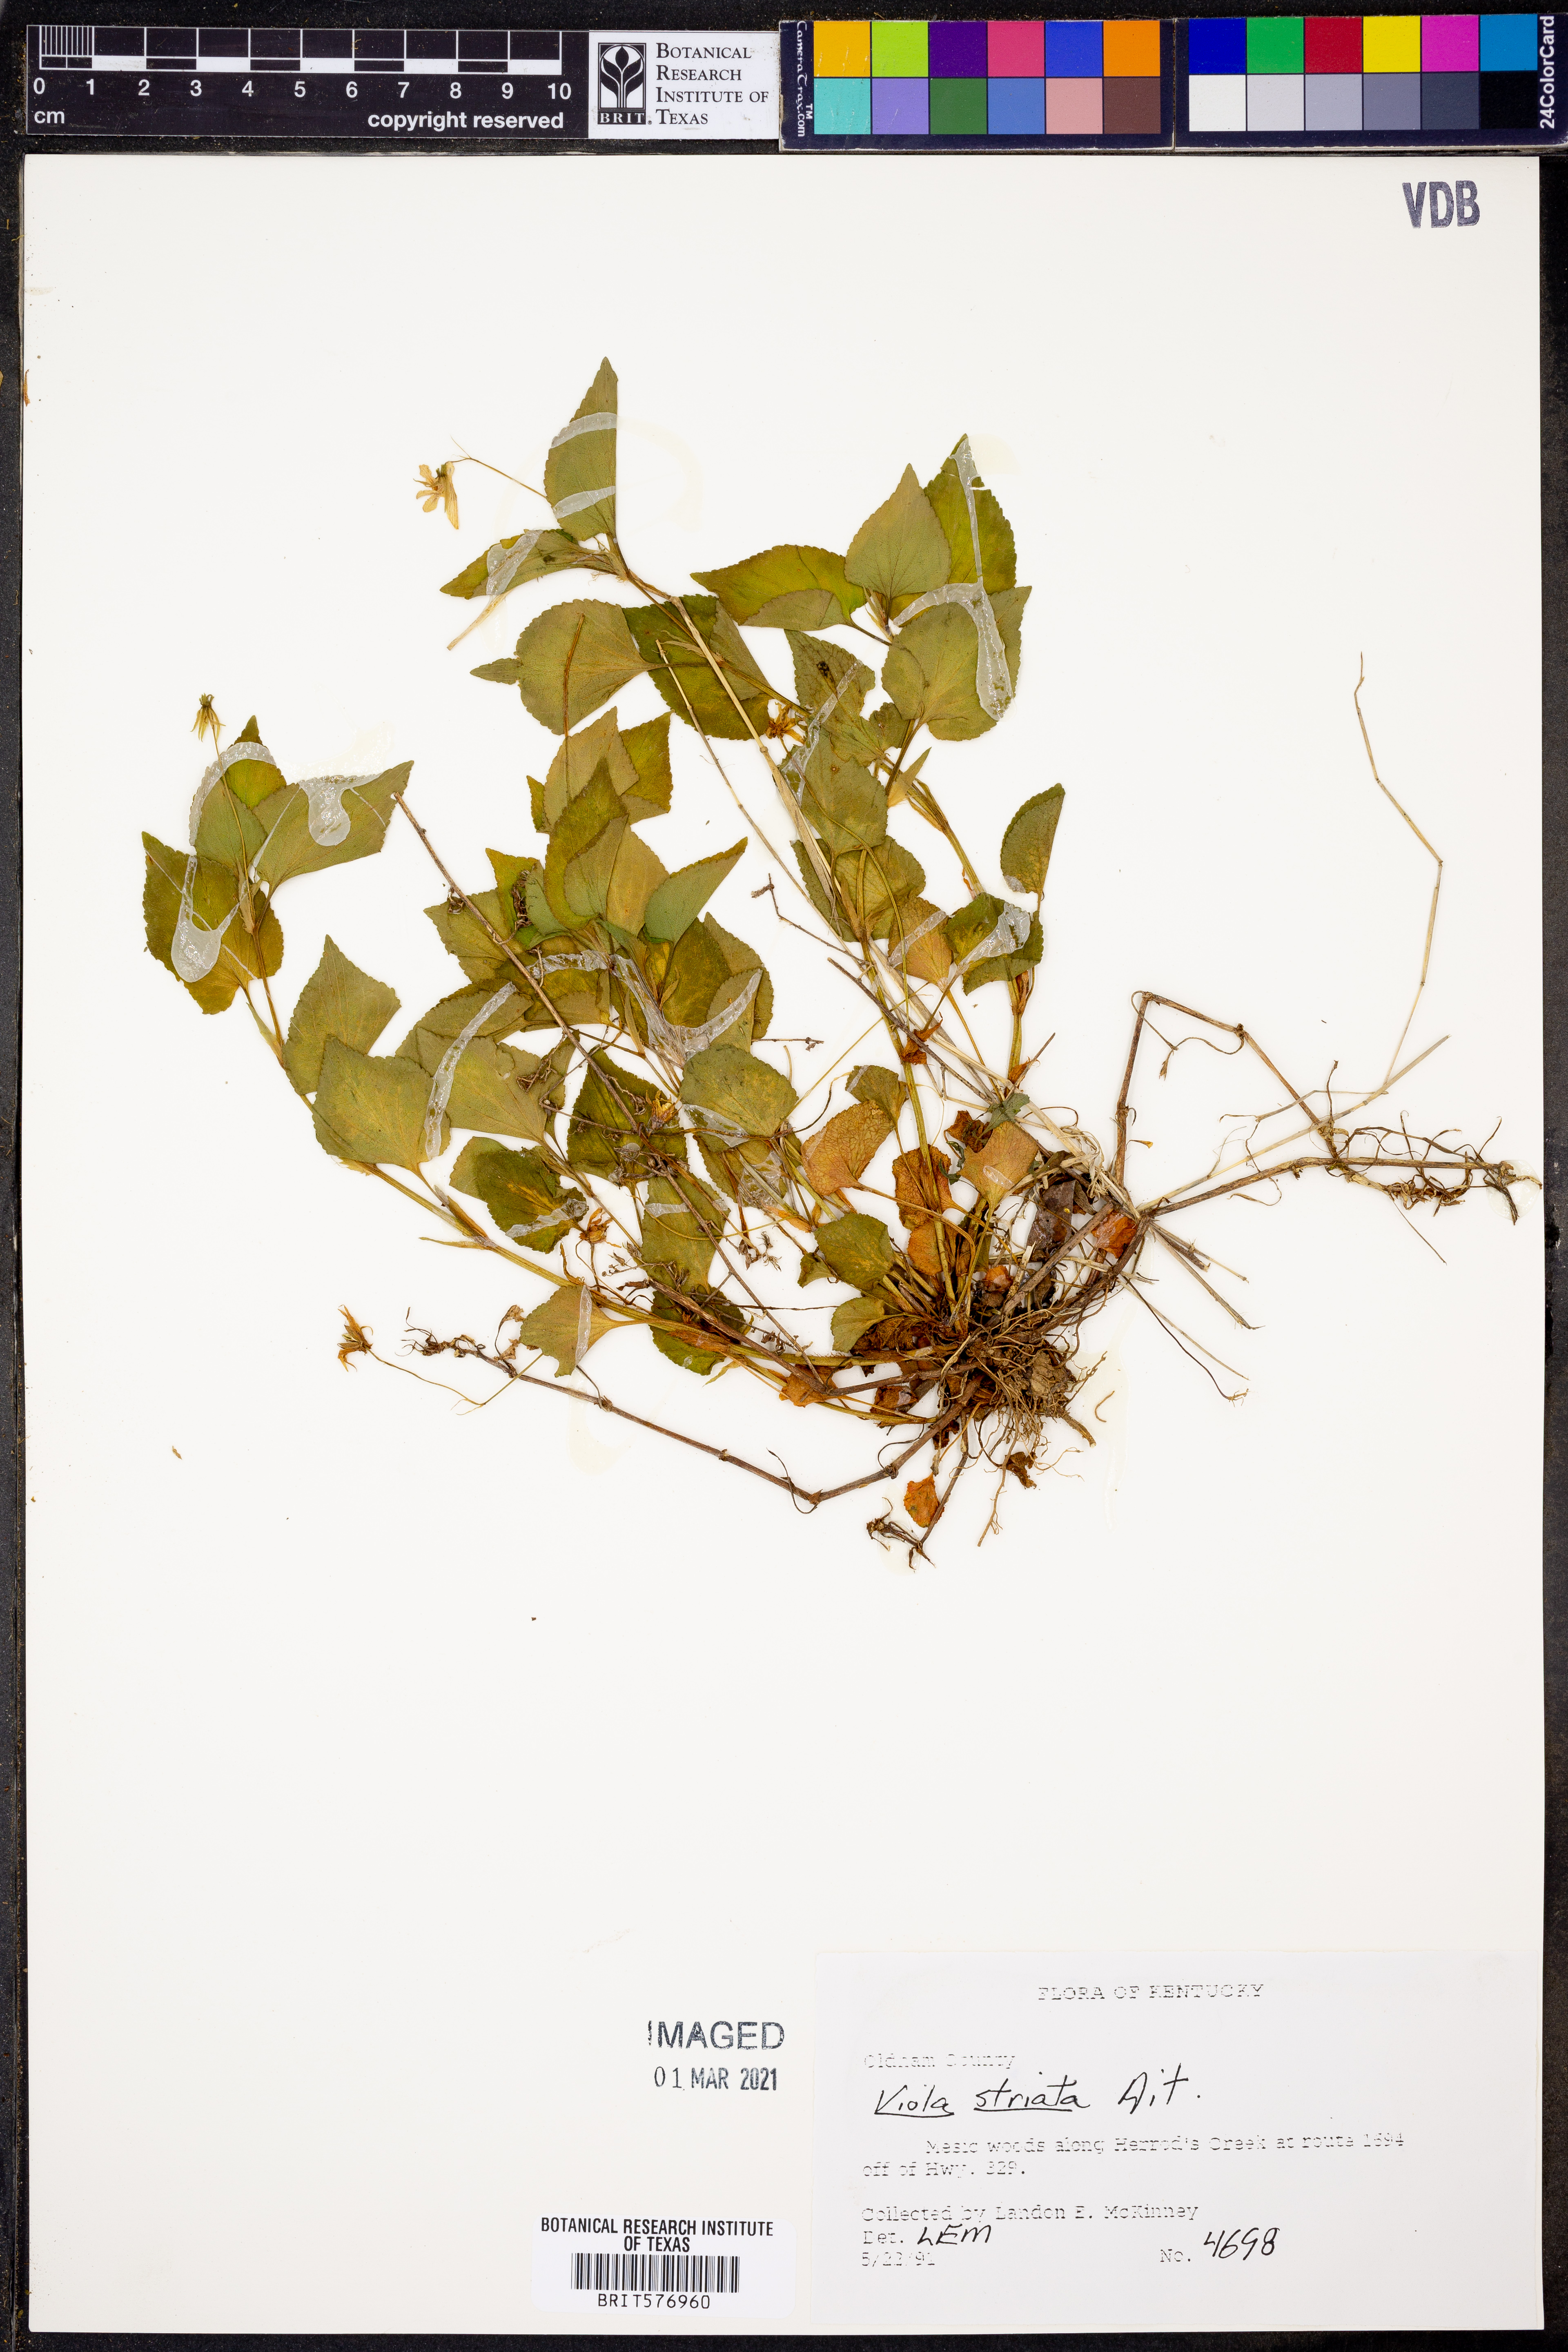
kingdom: Plantae
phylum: Tracheophyta
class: Magnoliopsida
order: Malpighiales
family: Violaceae
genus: Viola
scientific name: Viola striata
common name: Cream violet
